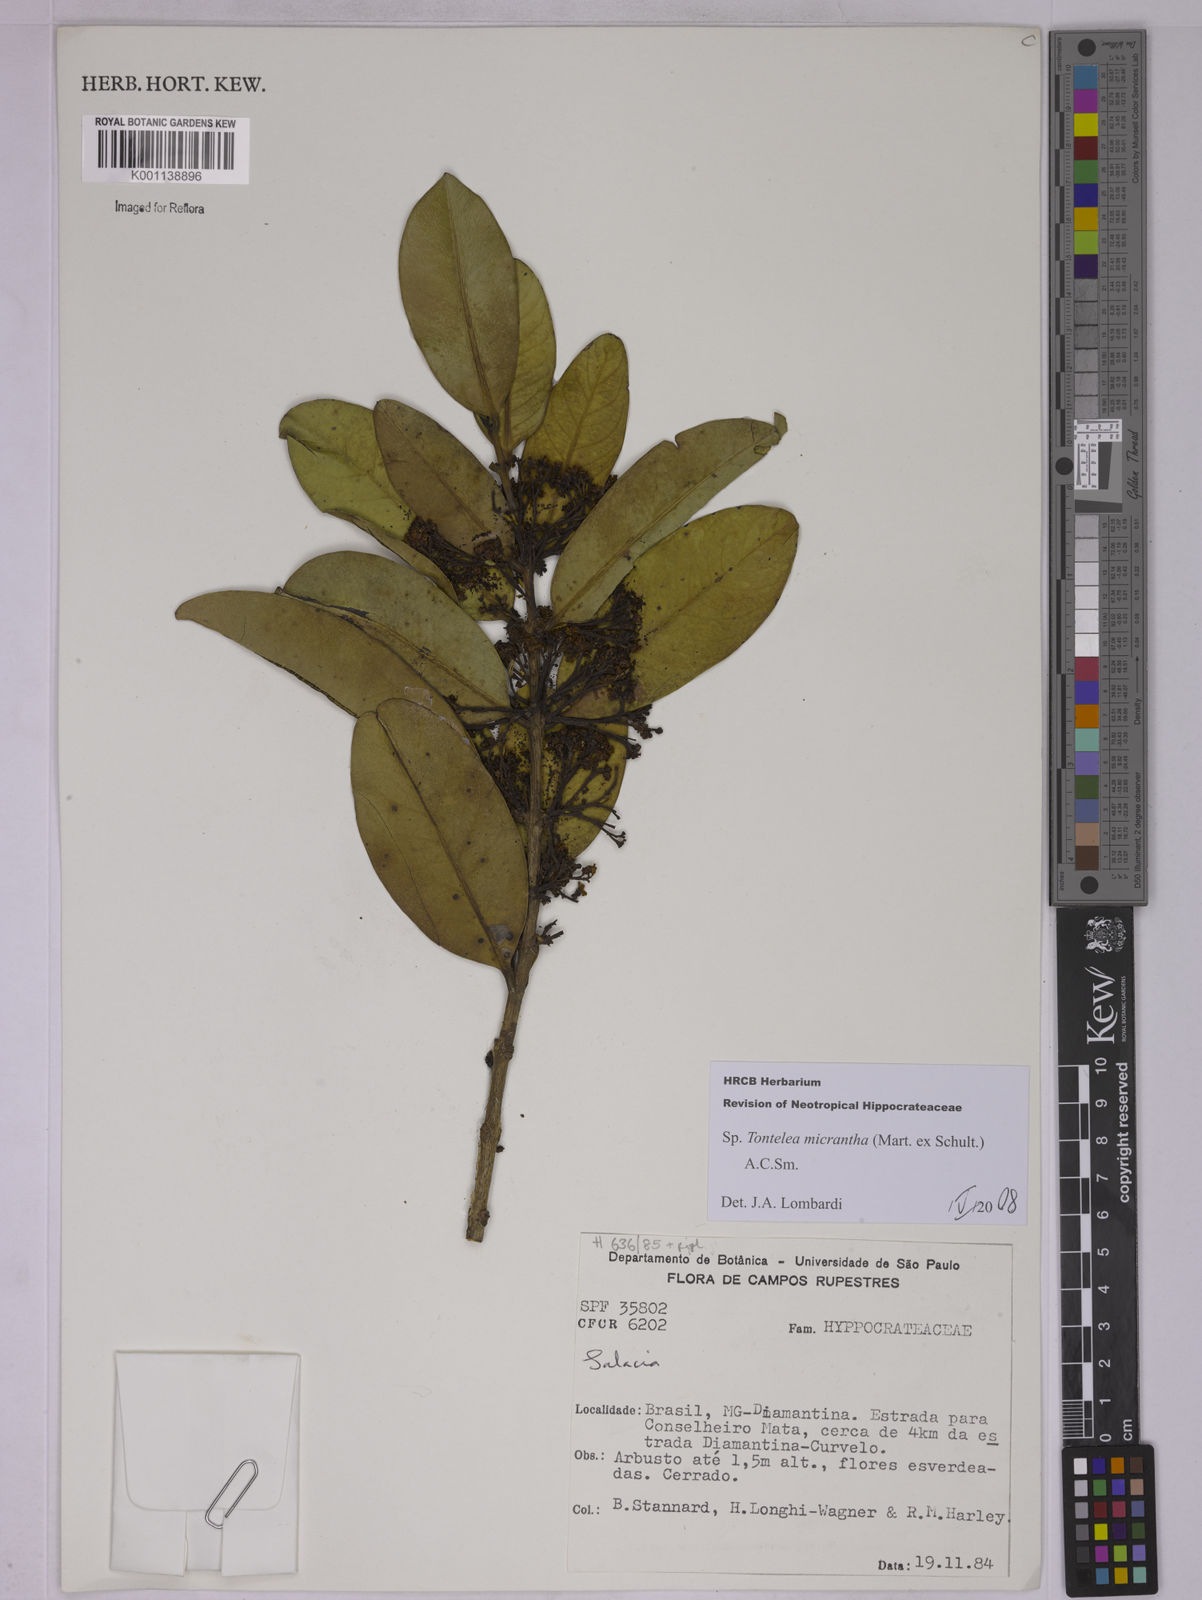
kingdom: Plantae
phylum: Tracheophyta
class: Magnoliopsida
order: Celastrales
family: Celastraceae
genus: Tontelea
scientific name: Tontelea micrantha
